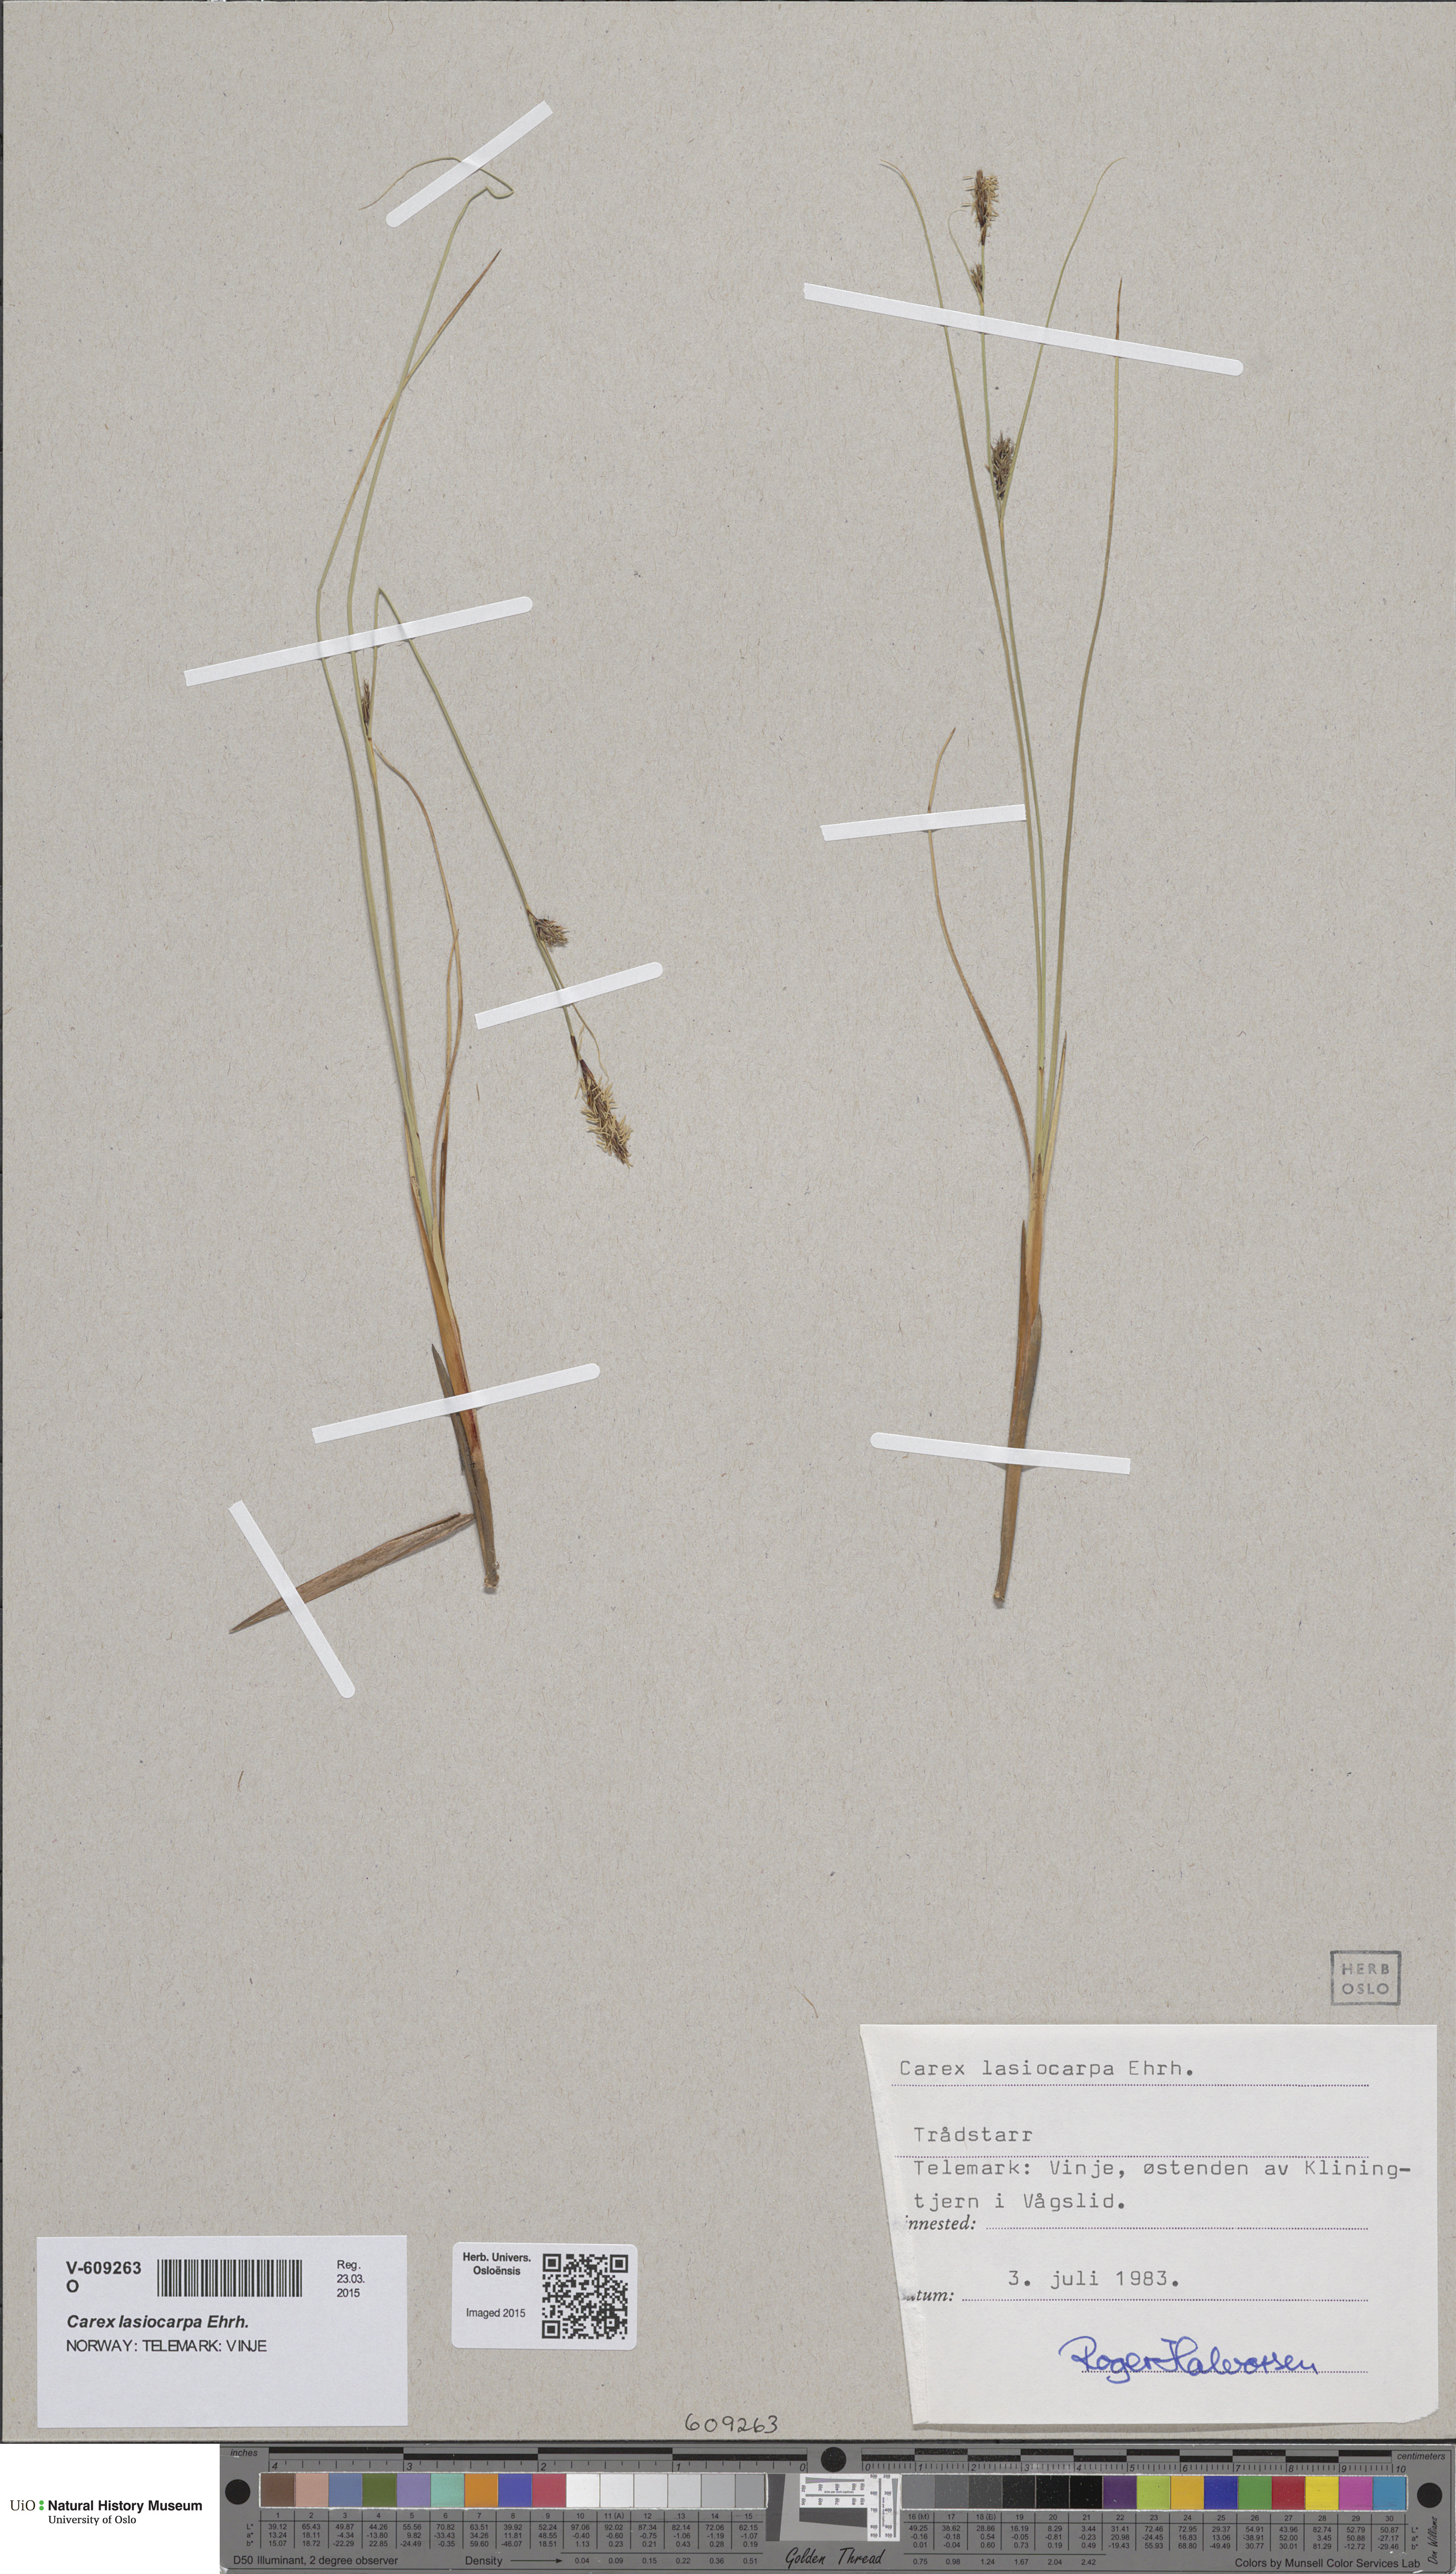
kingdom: Plantae
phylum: Tracheophyta
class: Liliopsida
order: Poales
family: Cyperaceae
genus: Carex
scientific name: Carex lasiocarpa
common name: Slender sedge
